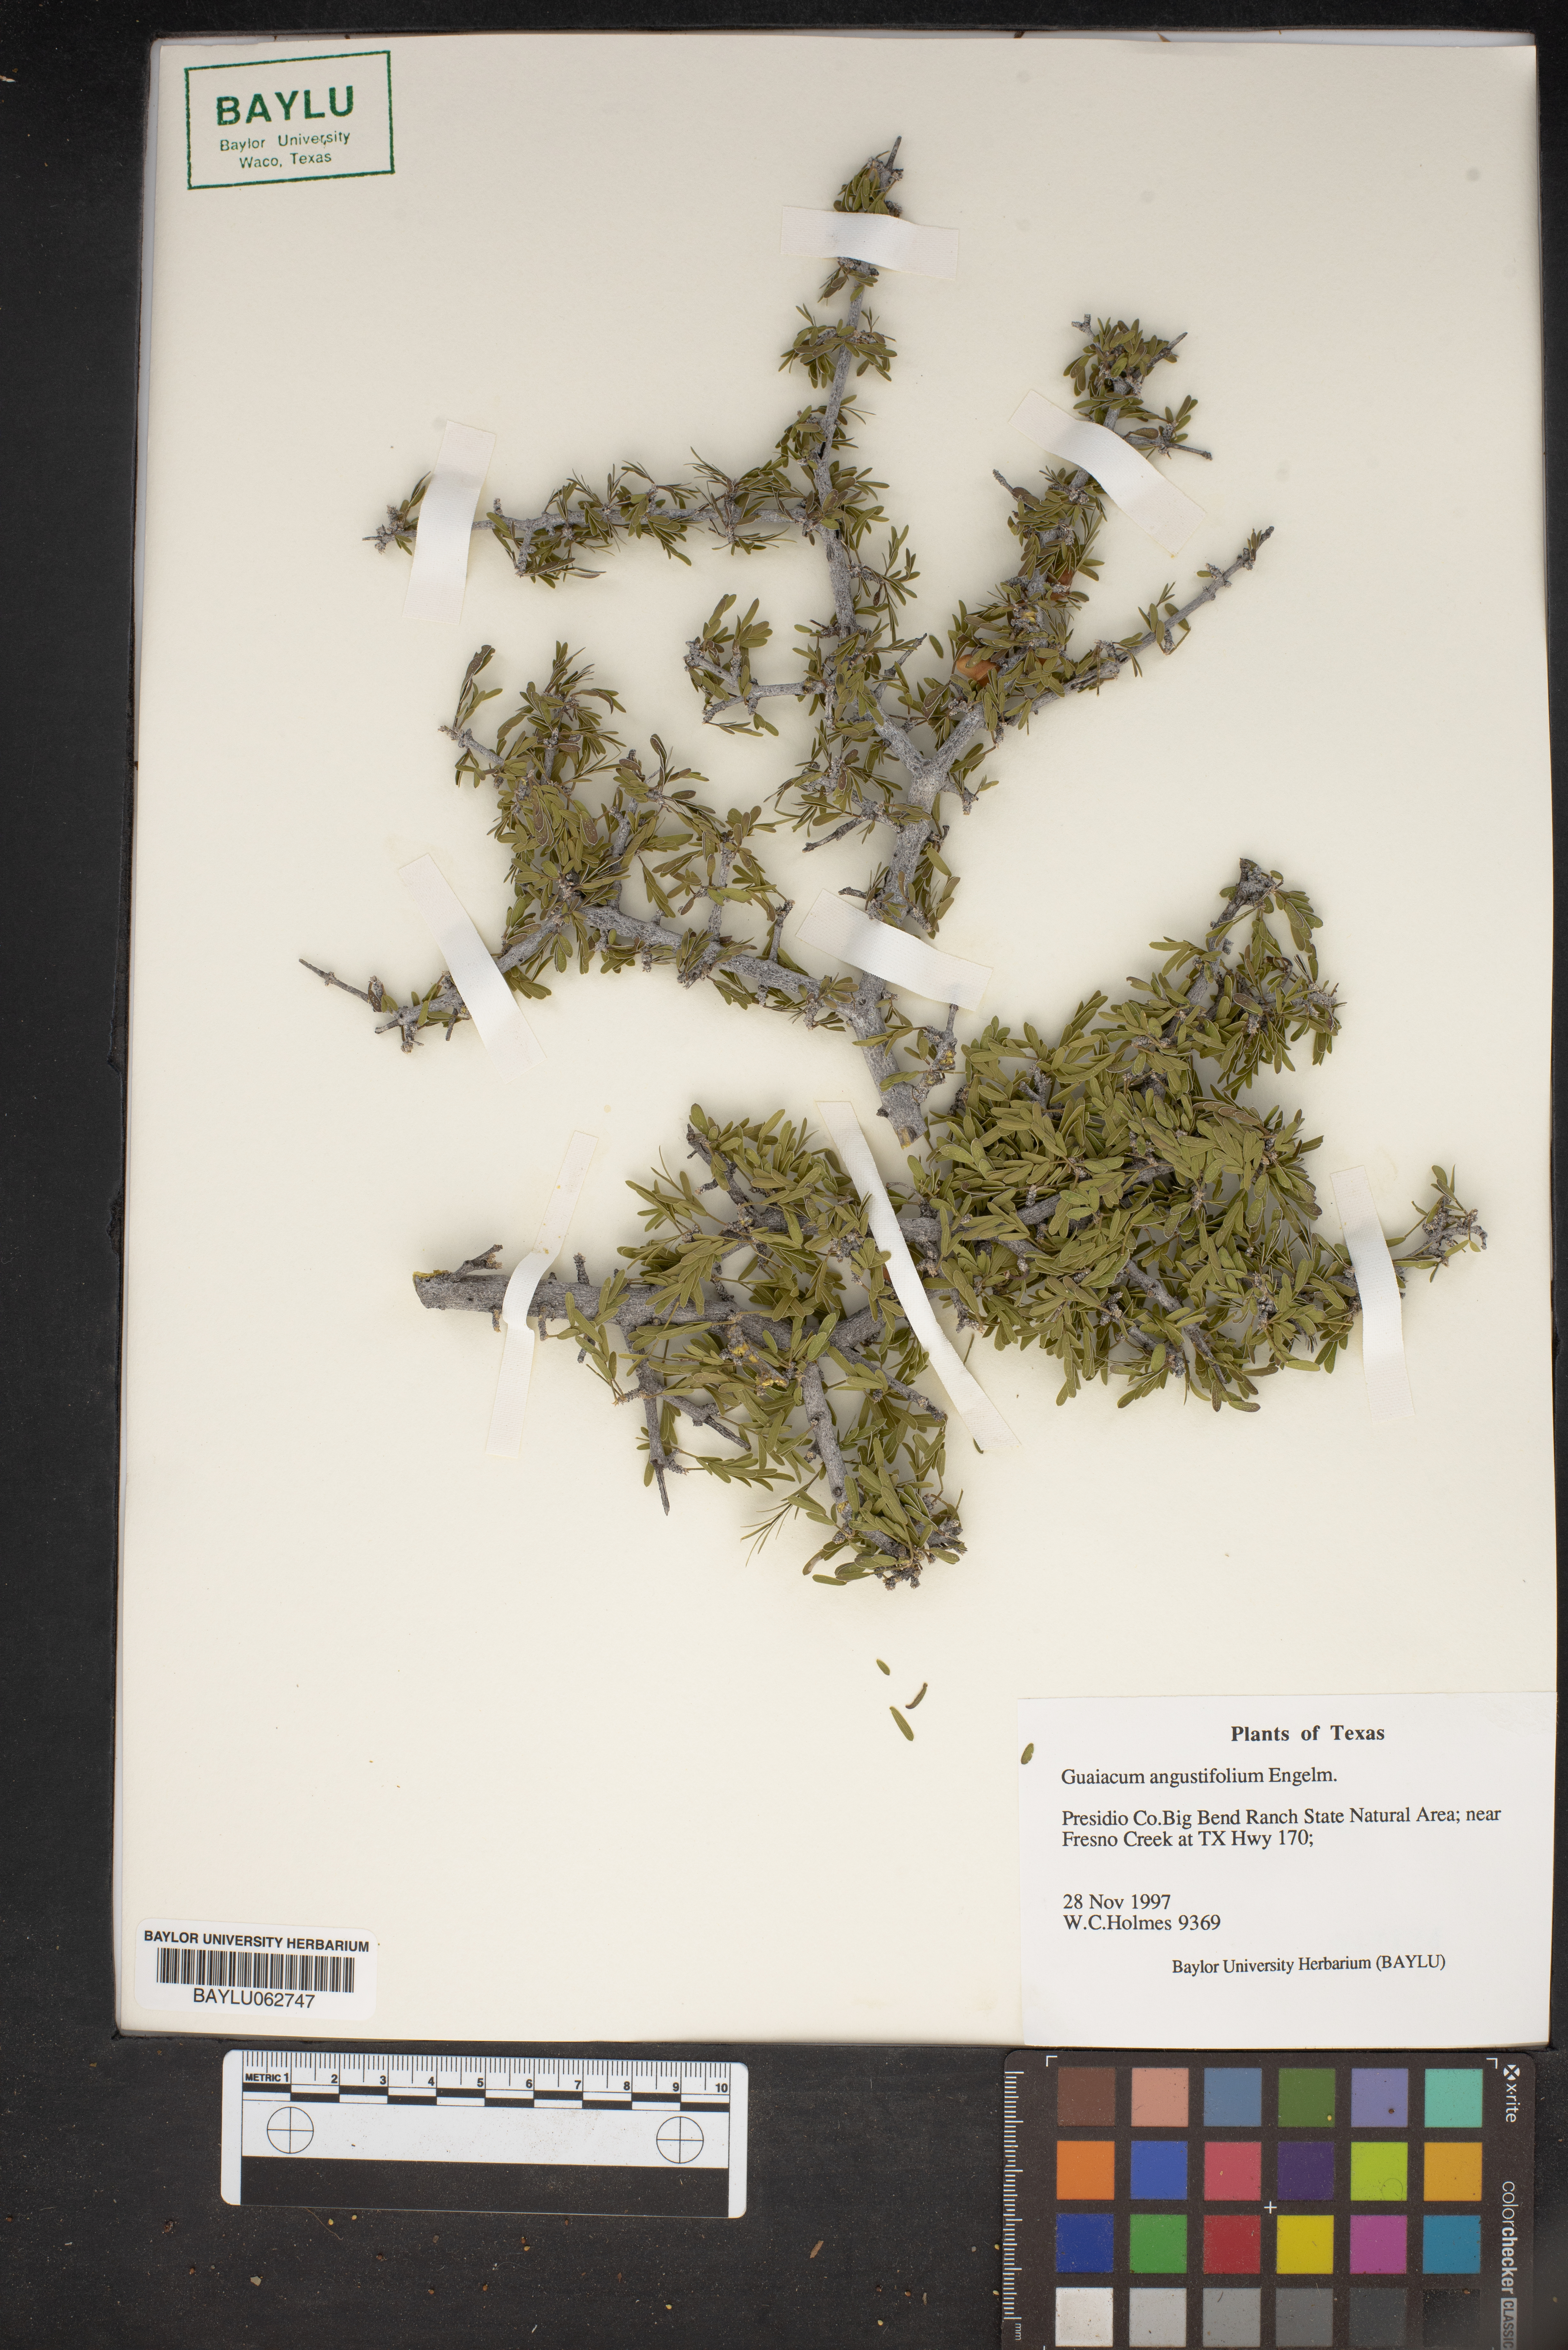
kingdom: Plantae
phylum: Tracheophyta
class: Magnoliopsida
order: Zygophyllales
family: Zygophyllaceae
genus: Porlieria
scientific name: Porlieria angustifolia
